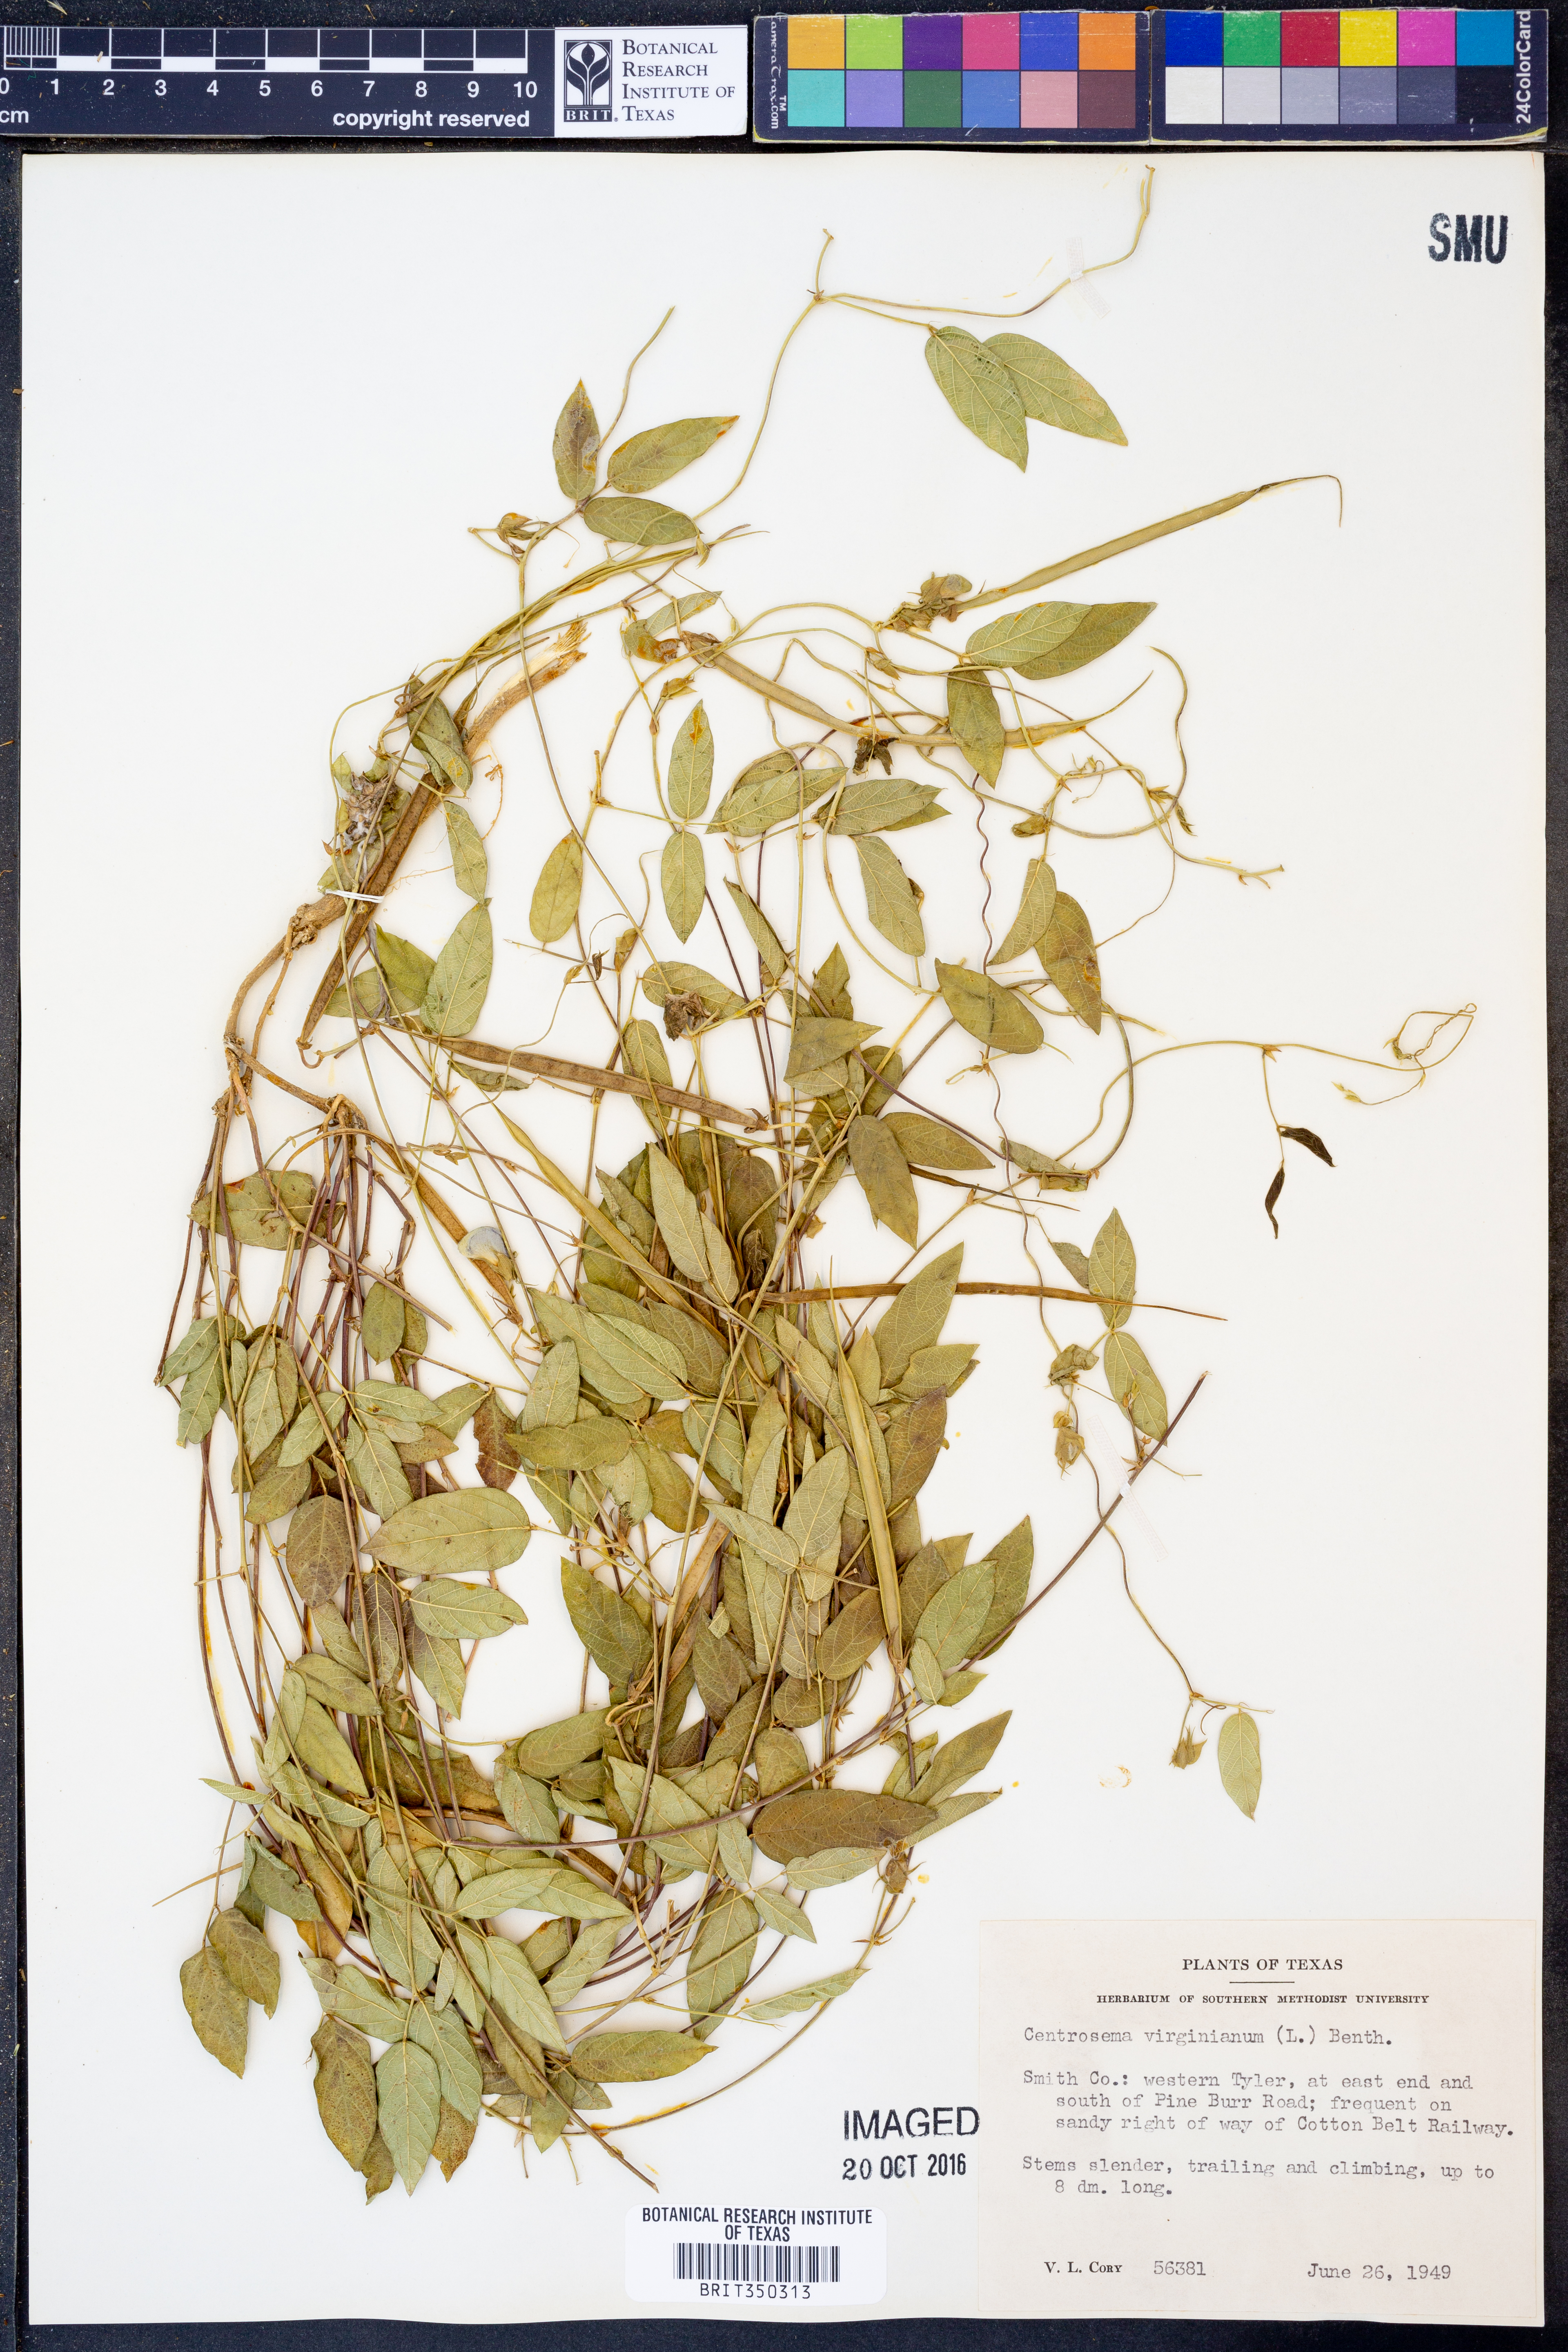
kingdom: Plantae
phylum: Tracheophyta
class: Magnoliopsida
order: Fabales
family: Fabaceae
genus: Centrosema
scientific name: Centrosema virginianum
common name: Butterfly-pea
